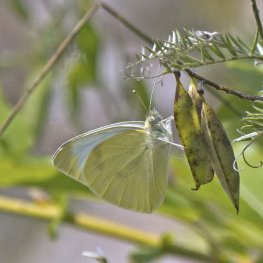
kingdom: Animalia
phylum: Arthropoda
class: Insecta
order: Lepidoptera
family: Pieridae
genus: Pieris
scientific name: Pieris rapae
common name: Cabbage White
